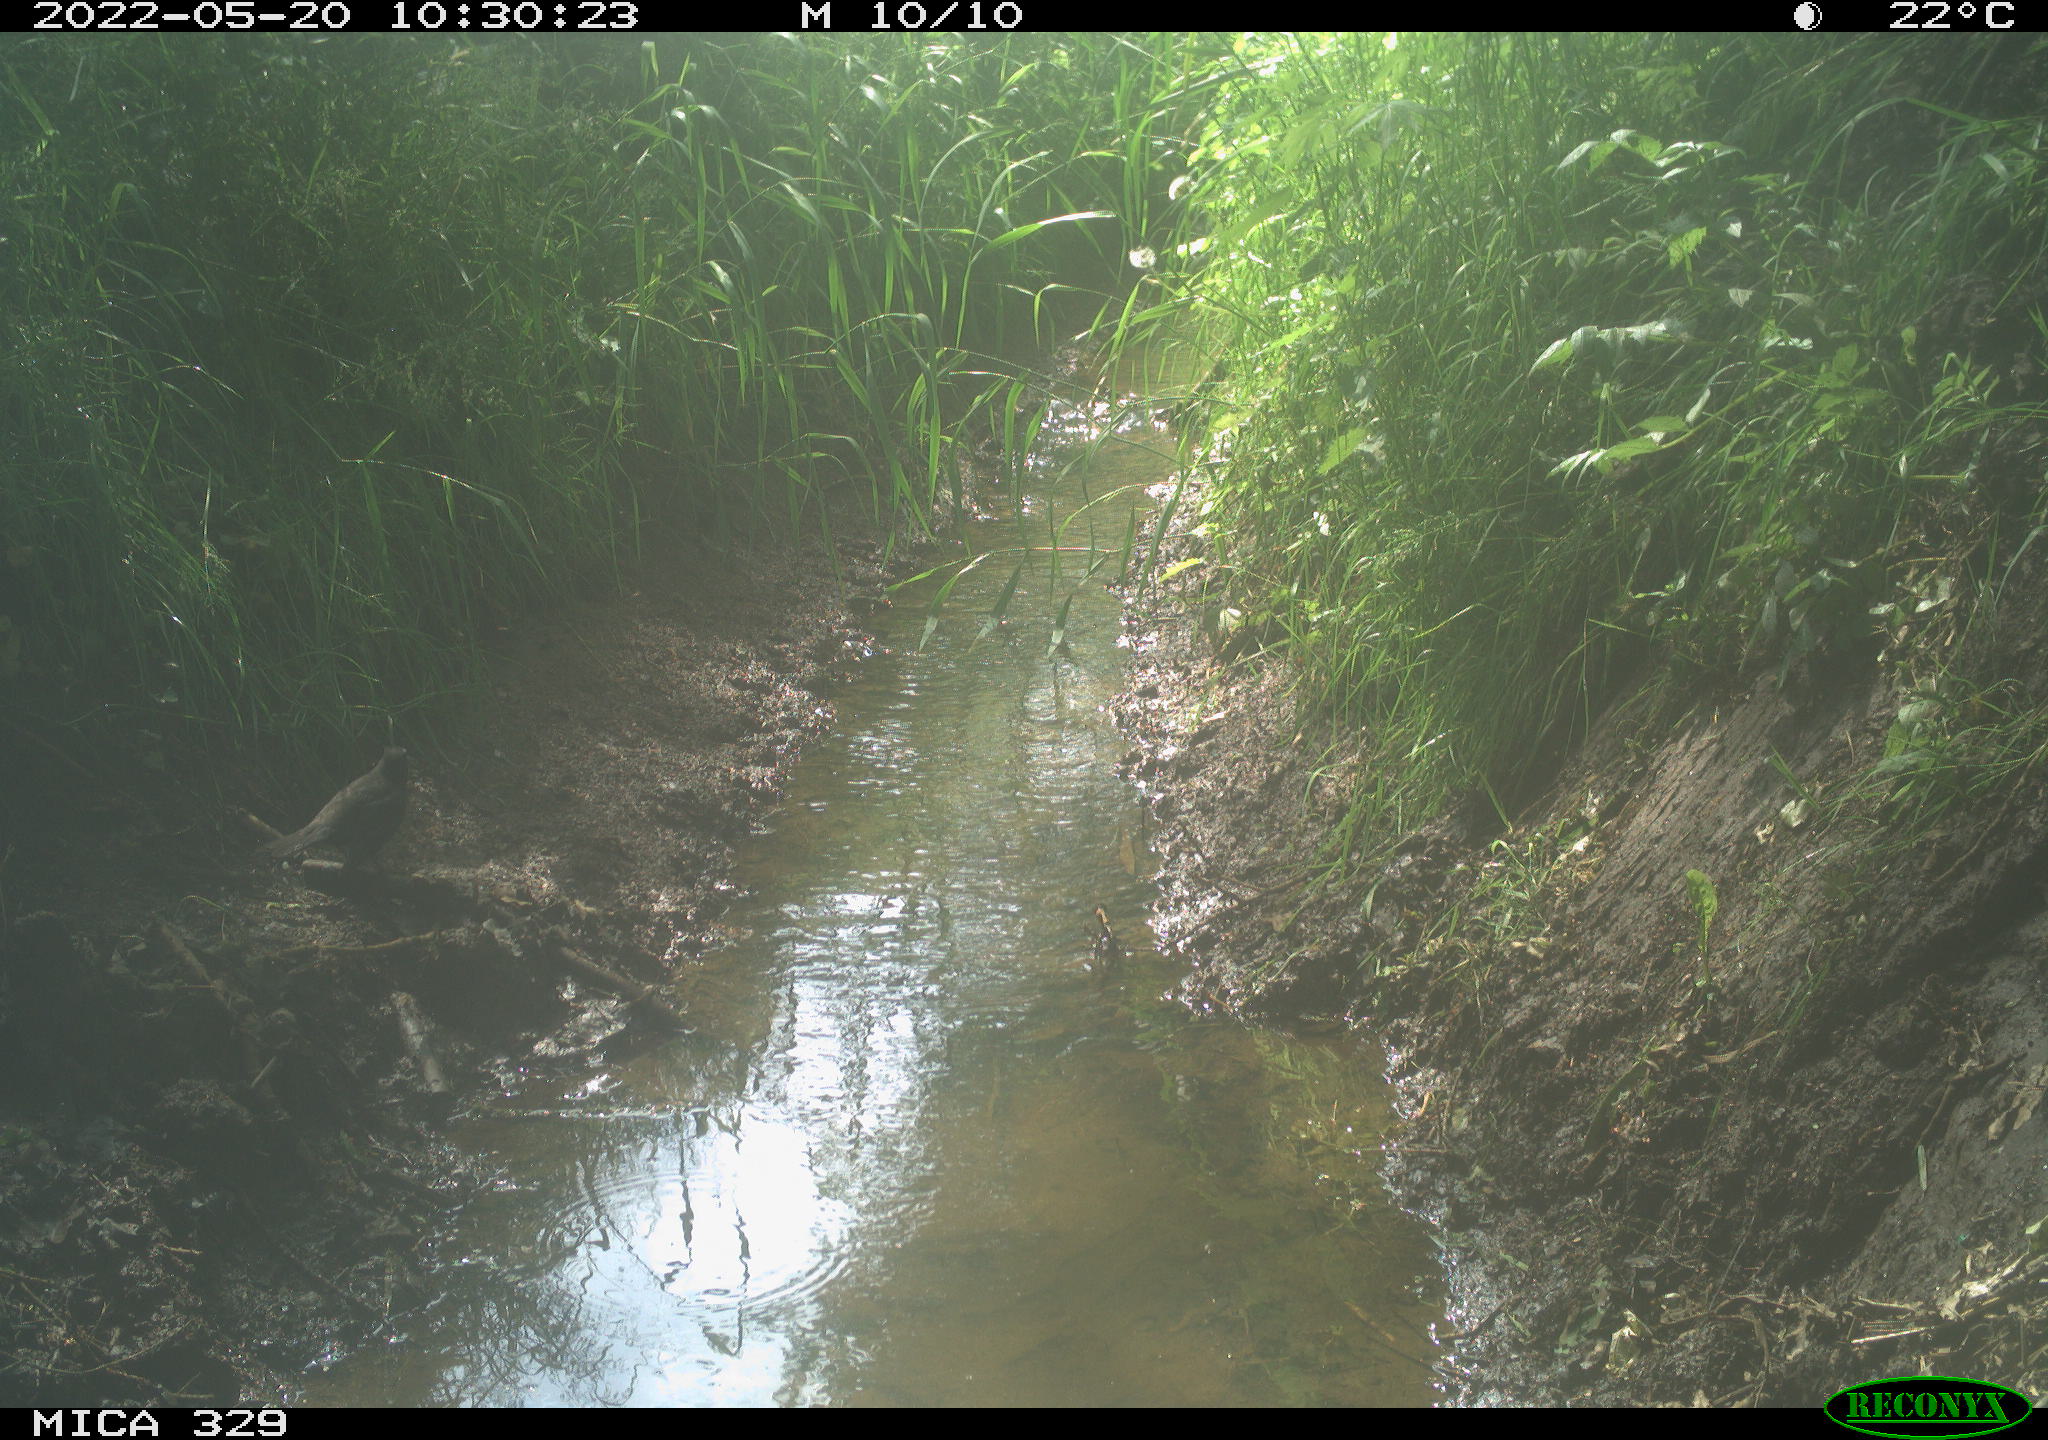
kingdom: Animalia
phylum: Chordata
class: Aves
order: Passeriformes
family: Turdidae
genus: Turdus
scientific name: Turdus merula
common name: Common blackbird
